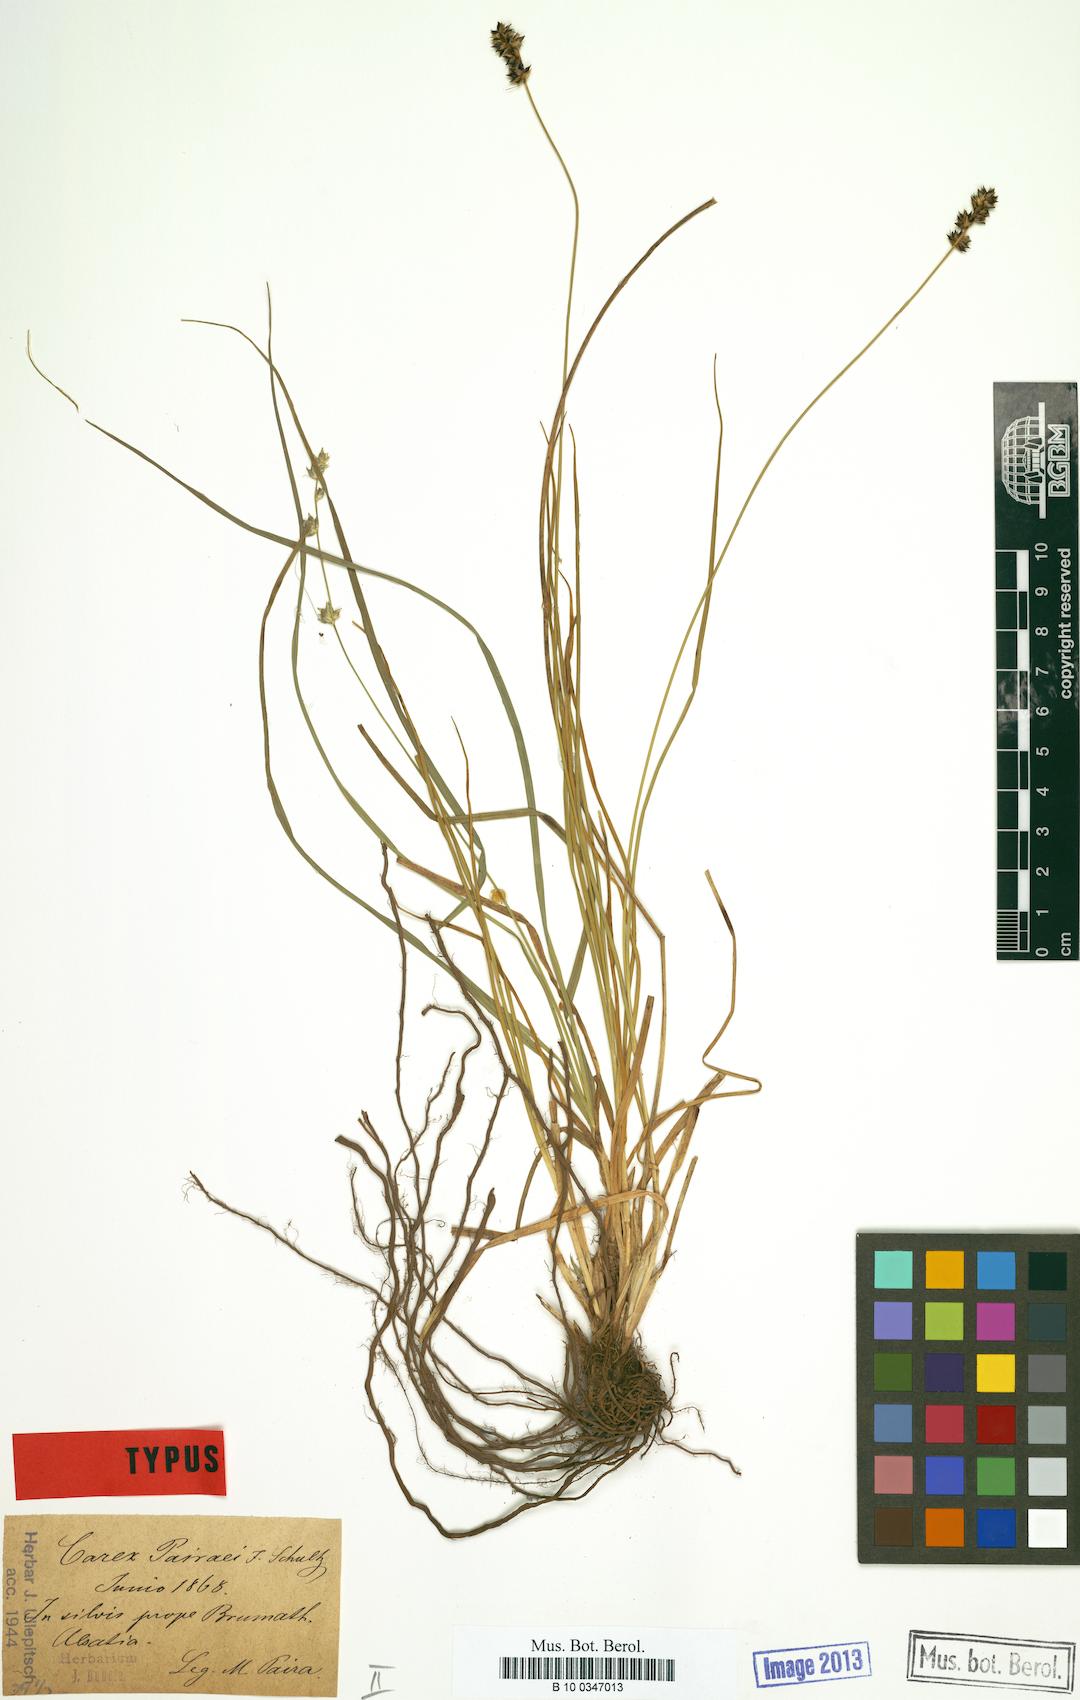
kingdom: Plantae
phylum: Tracheophyta
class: Liliopsida
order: Poales
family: Cyperaceae
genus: Carex
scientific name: Carex pairae
